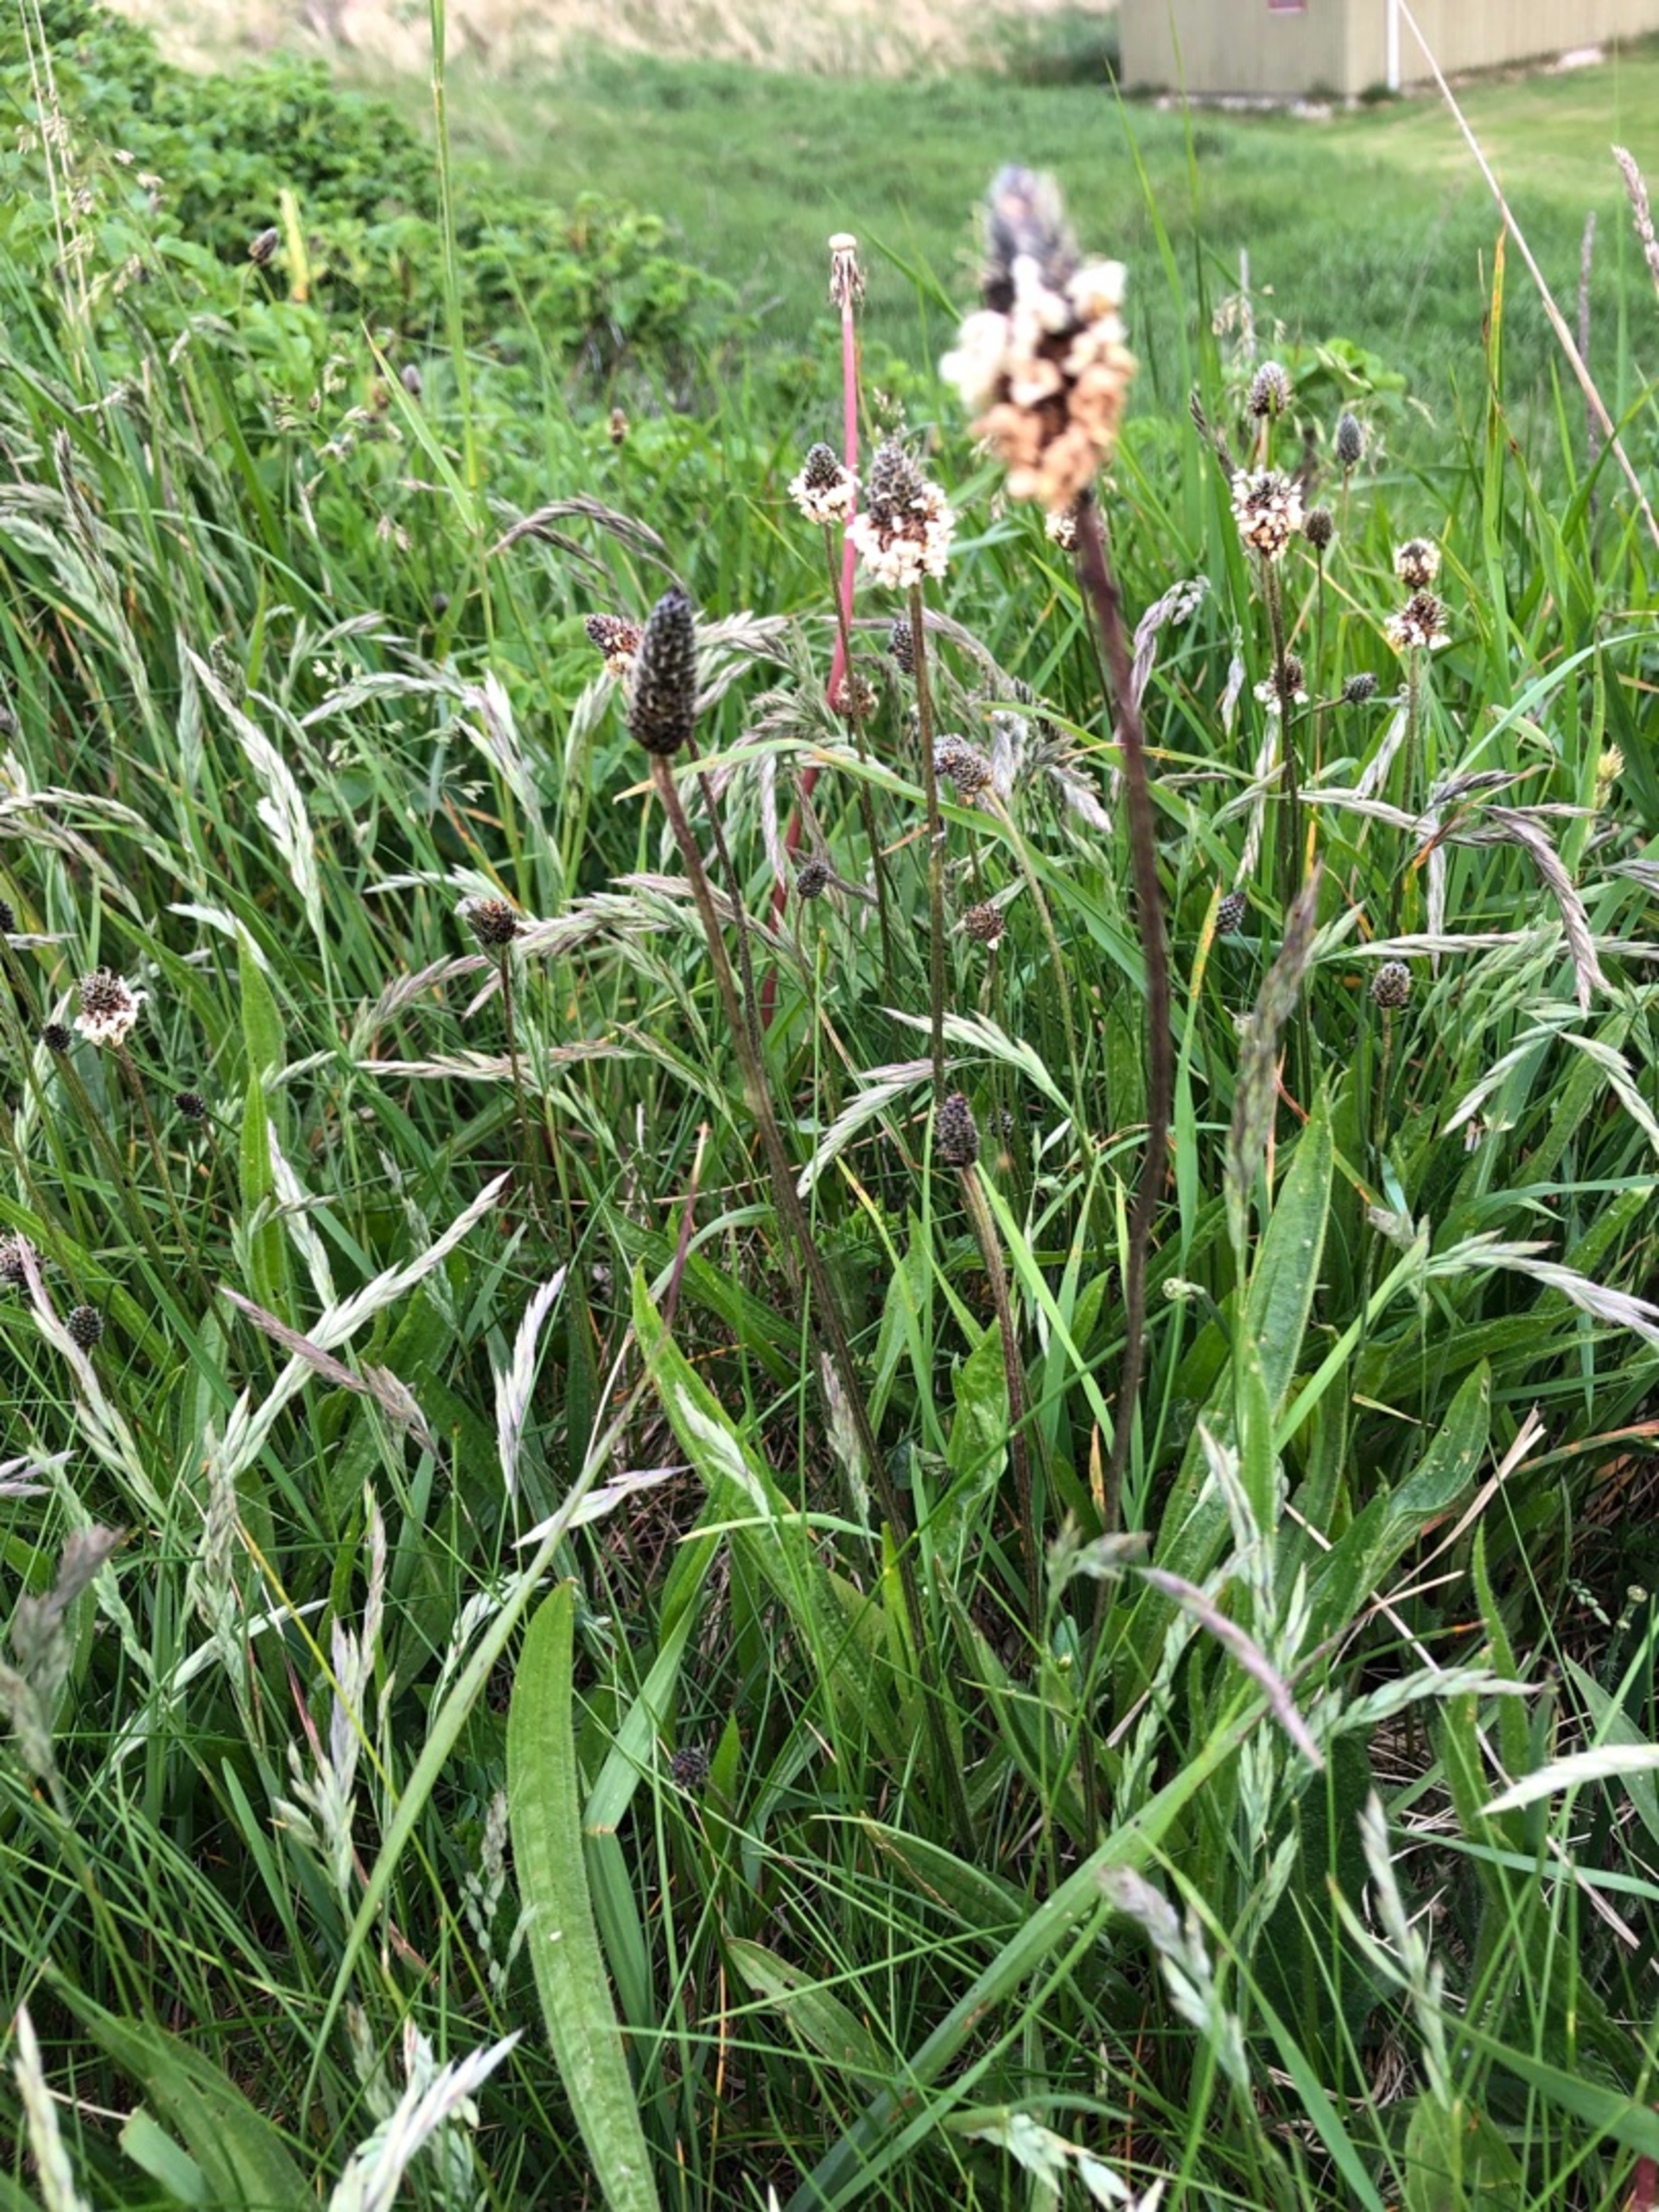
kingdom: Plantae
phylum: Tracheophyta
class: Magnoliopsida
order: Lamiales
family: Plantaginaceae
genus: Plantago
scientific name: Plantago lanceolata
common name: Lancet-vejbred
